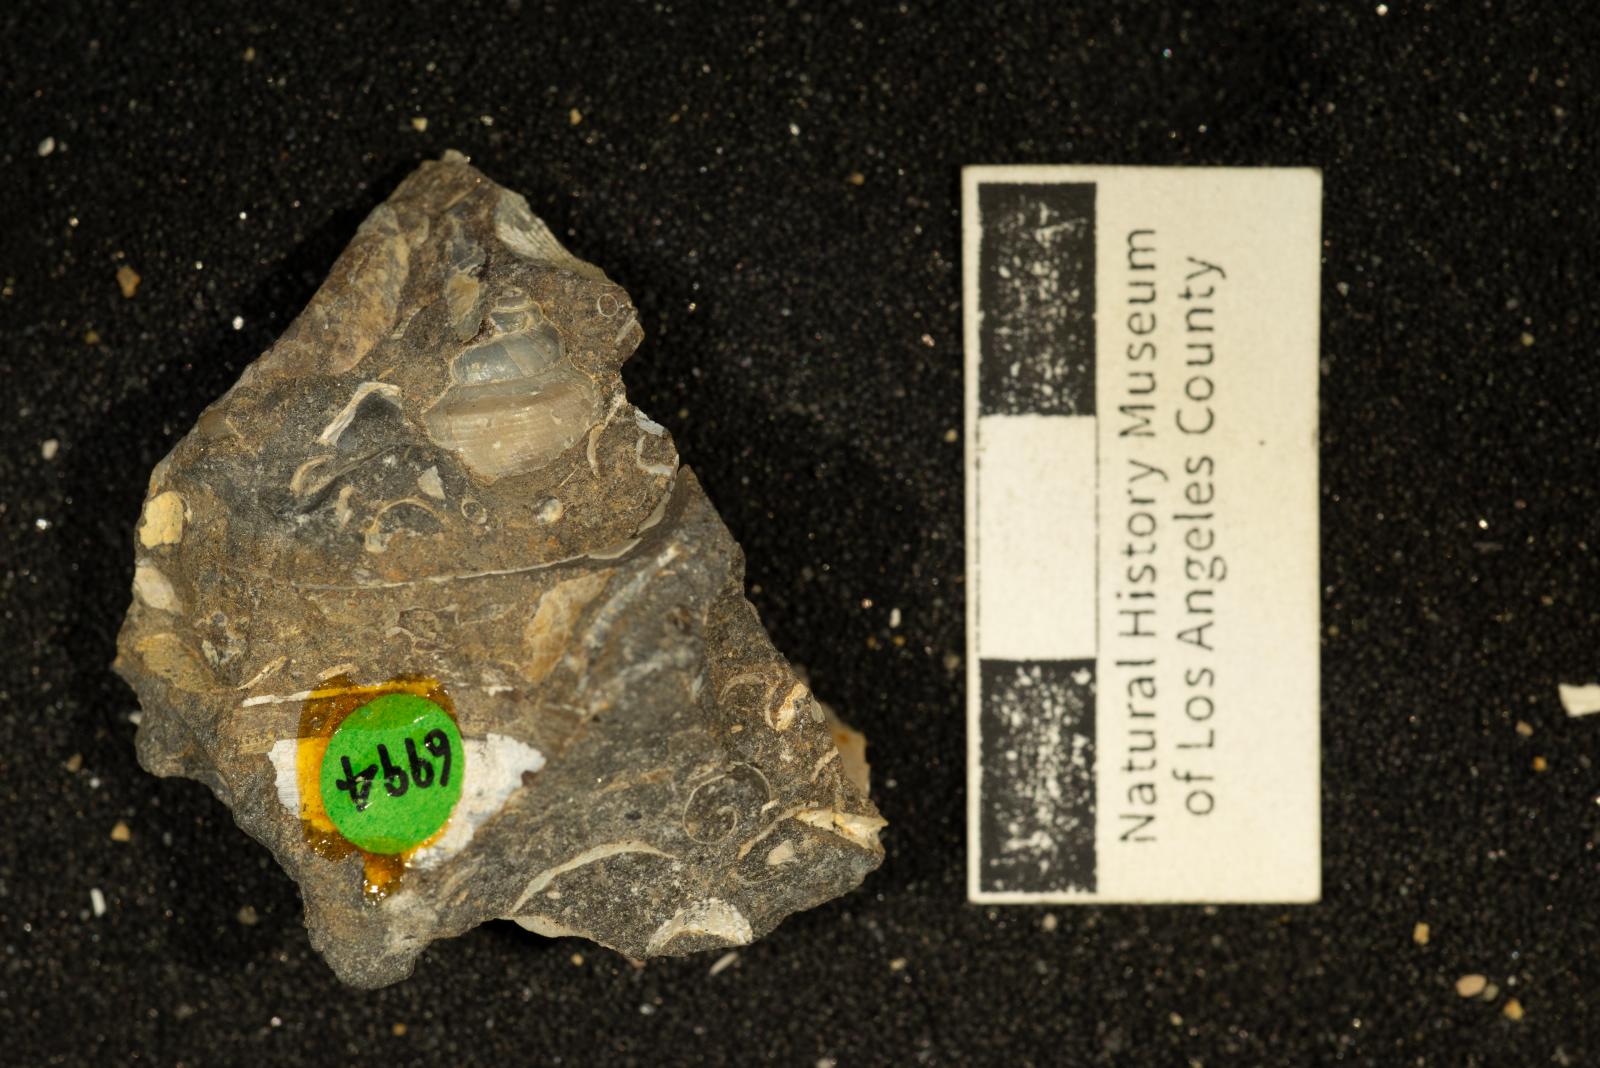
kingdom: Animalia
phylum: Mollusca
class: Bivalvia
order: Ostreida
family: Pteriidae
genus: Atira
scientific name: Atira Angaria ornatissima
